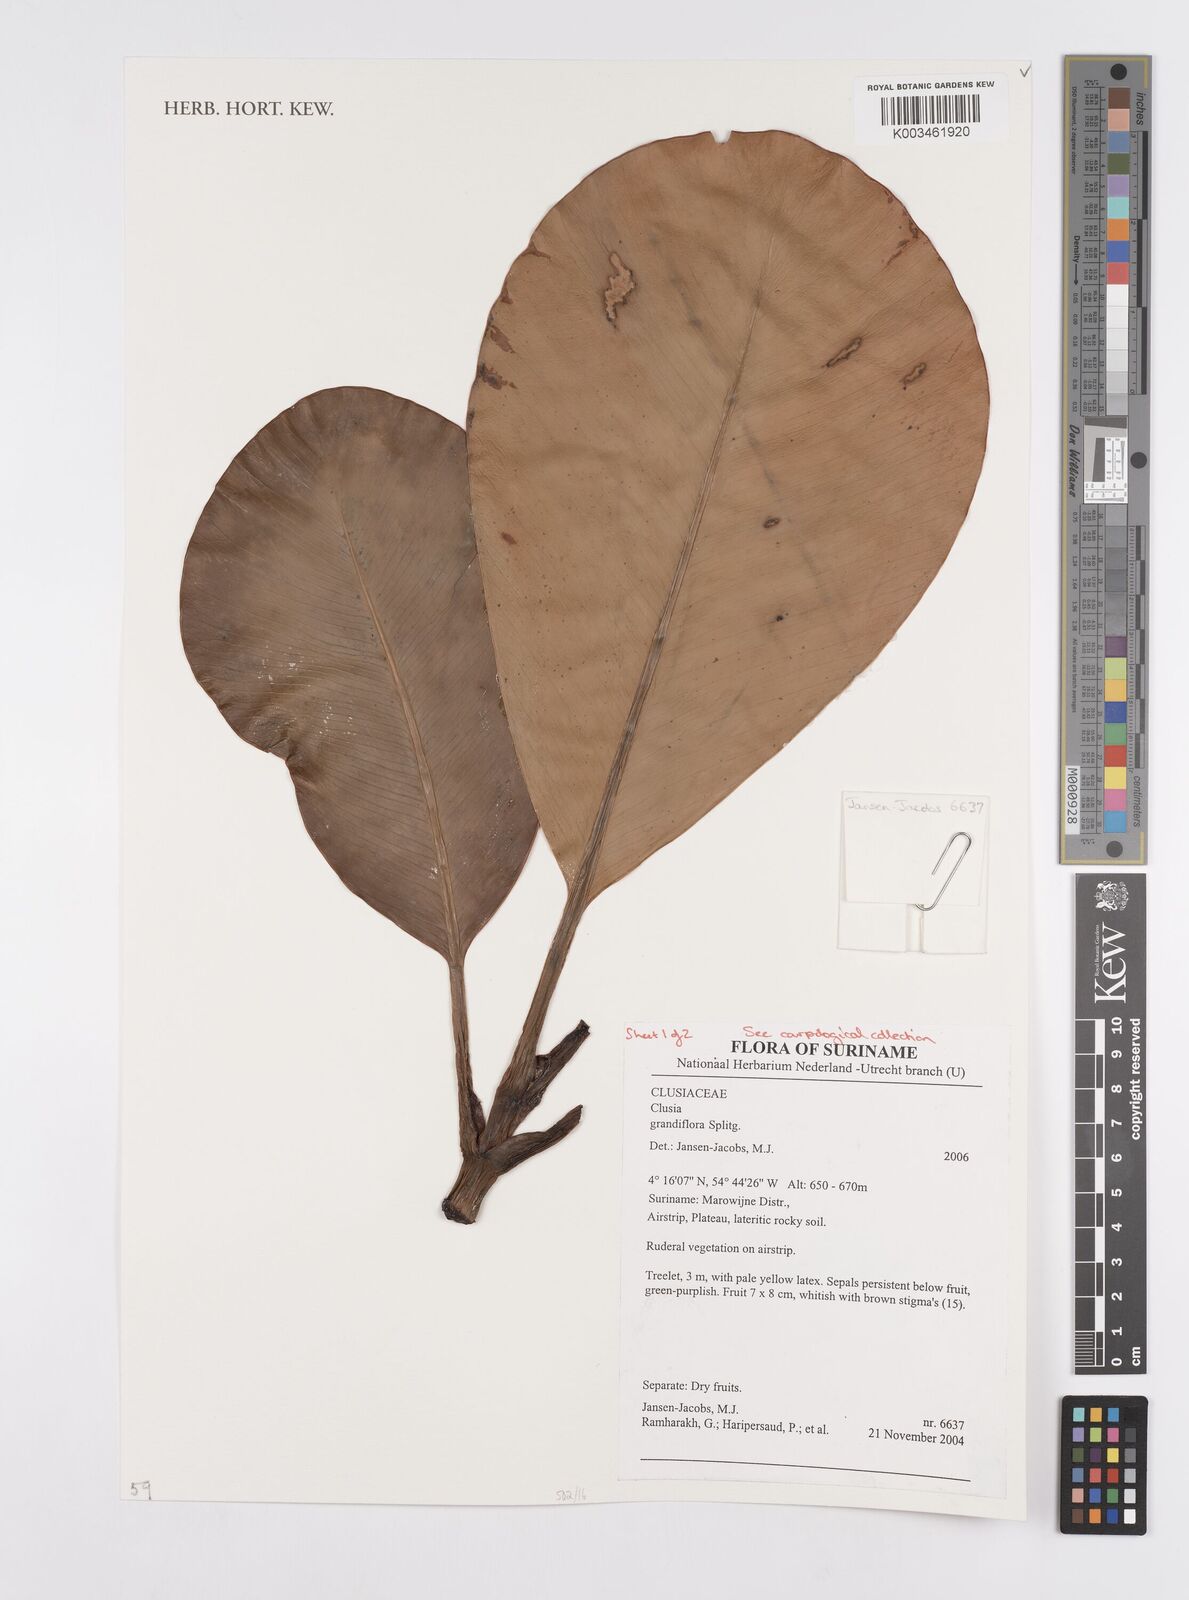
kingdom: Plantae
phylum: Tracheophyta
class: Magnoliopsida
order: Malpighiales
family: Clusiaceae
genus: Clusia
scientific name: Clusia grandiflora
